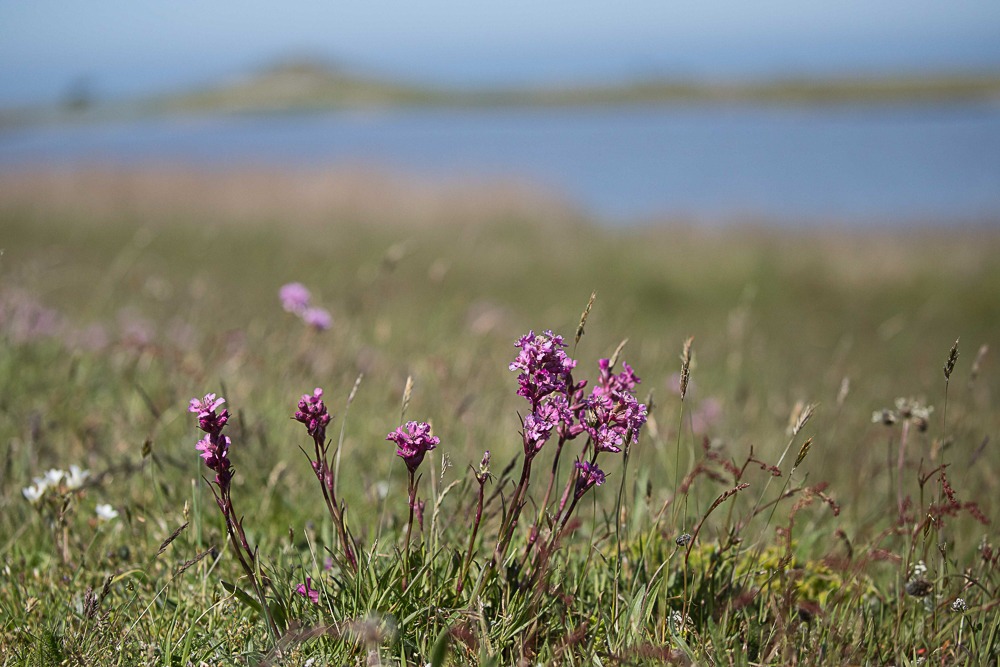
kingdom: Plantae
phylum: Tracheophyta
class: Magnoliopsida
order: Caryophyllales
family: Caryophyllaceae
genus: Viscaria
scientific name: Viscaria vulgaris
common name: Tjærenellike
